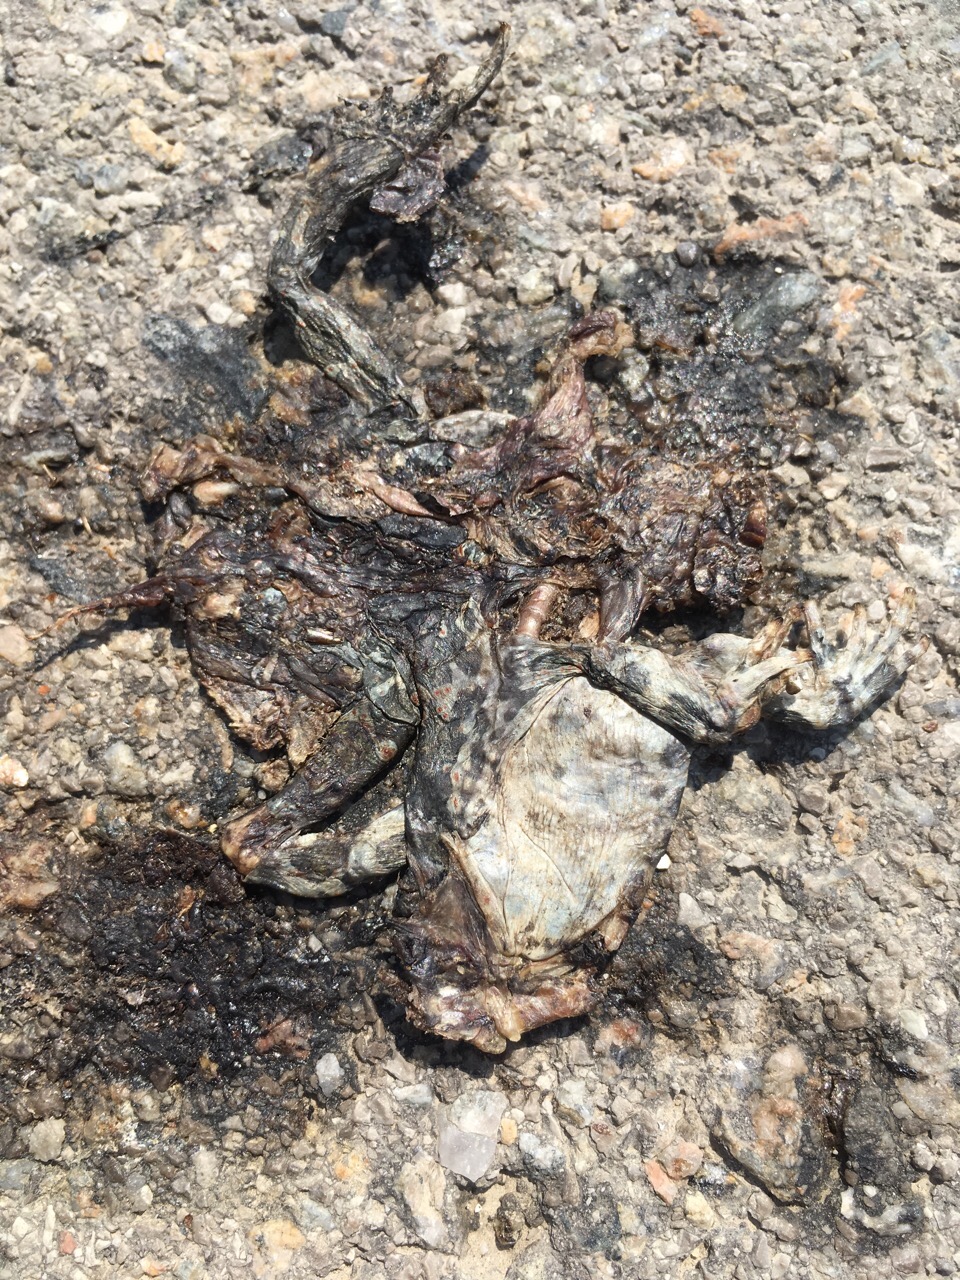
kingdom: Animalia
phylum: Chordata
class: Amphibia
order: Anura
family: Bufonidae
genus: Bufotes
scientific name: Bufotes viridis
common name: European green toad
